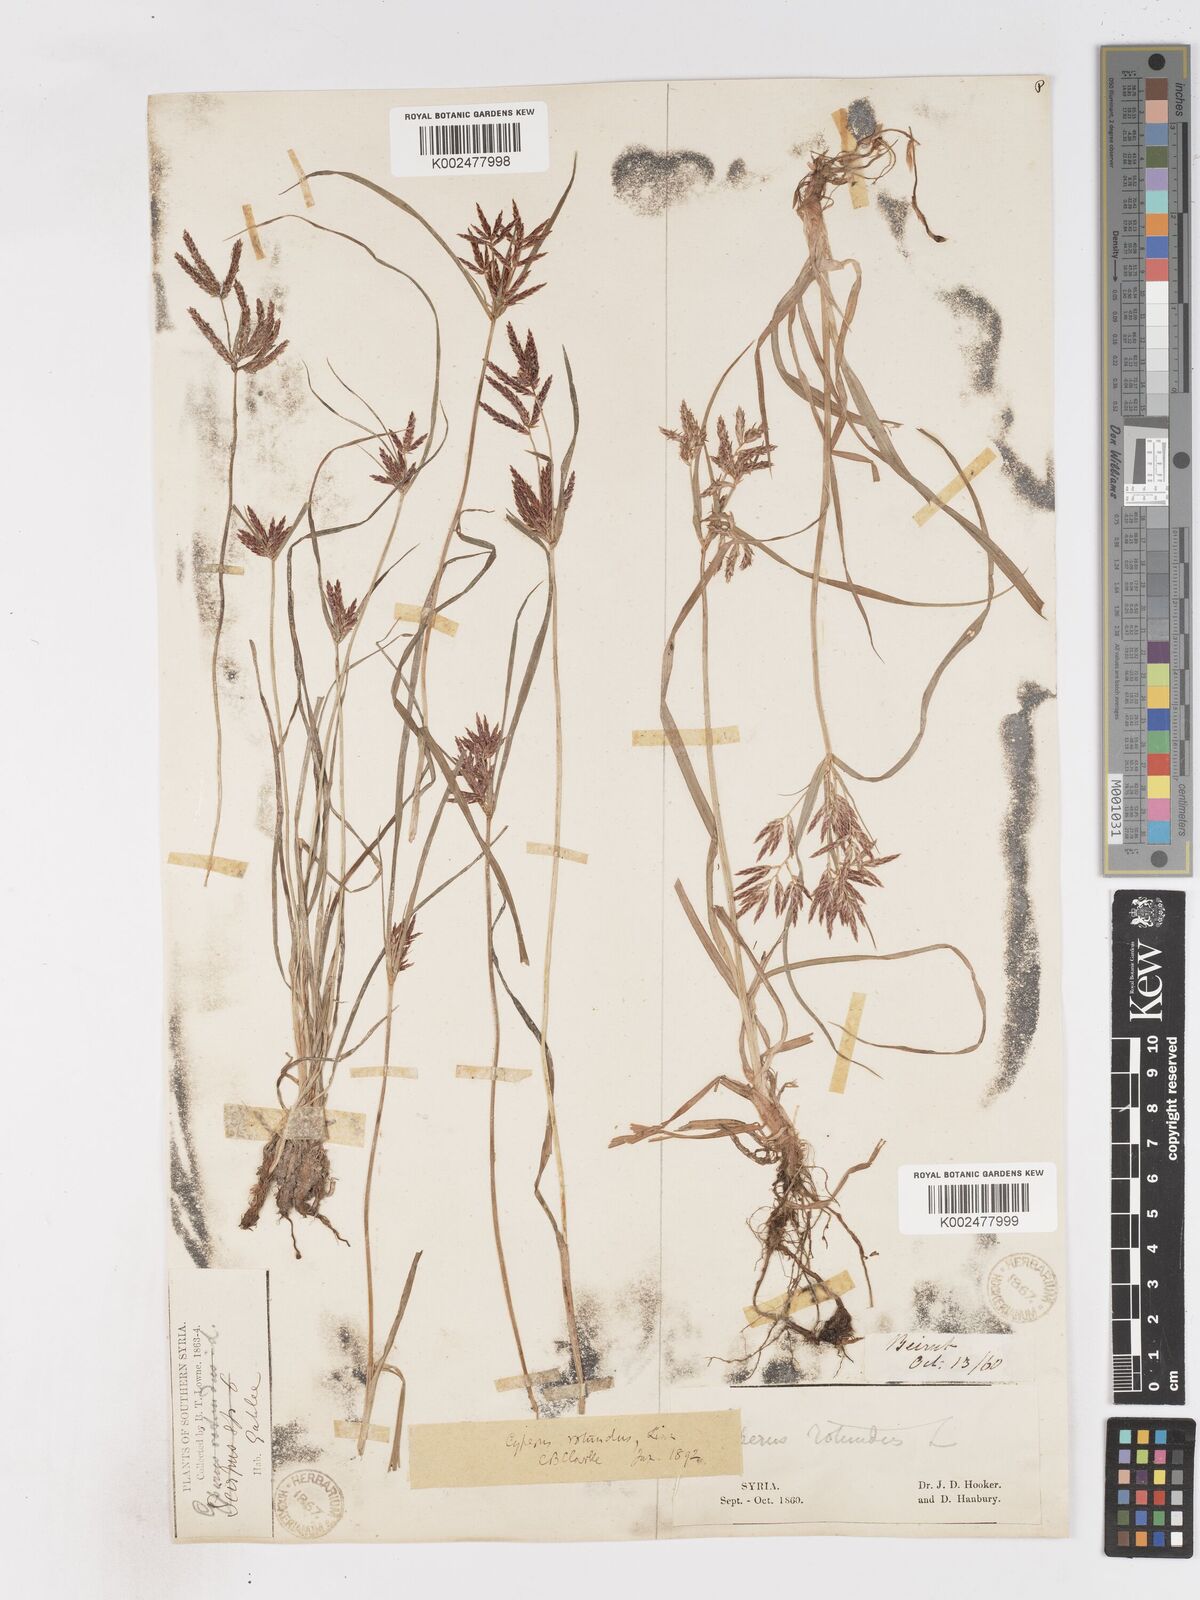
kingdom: Plantae
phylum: Tracheophyta
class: Liliopsida
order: Poales
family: Cyperaceae
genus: Cyperus
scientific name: Cyperus rotundus
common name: Nutgrass
